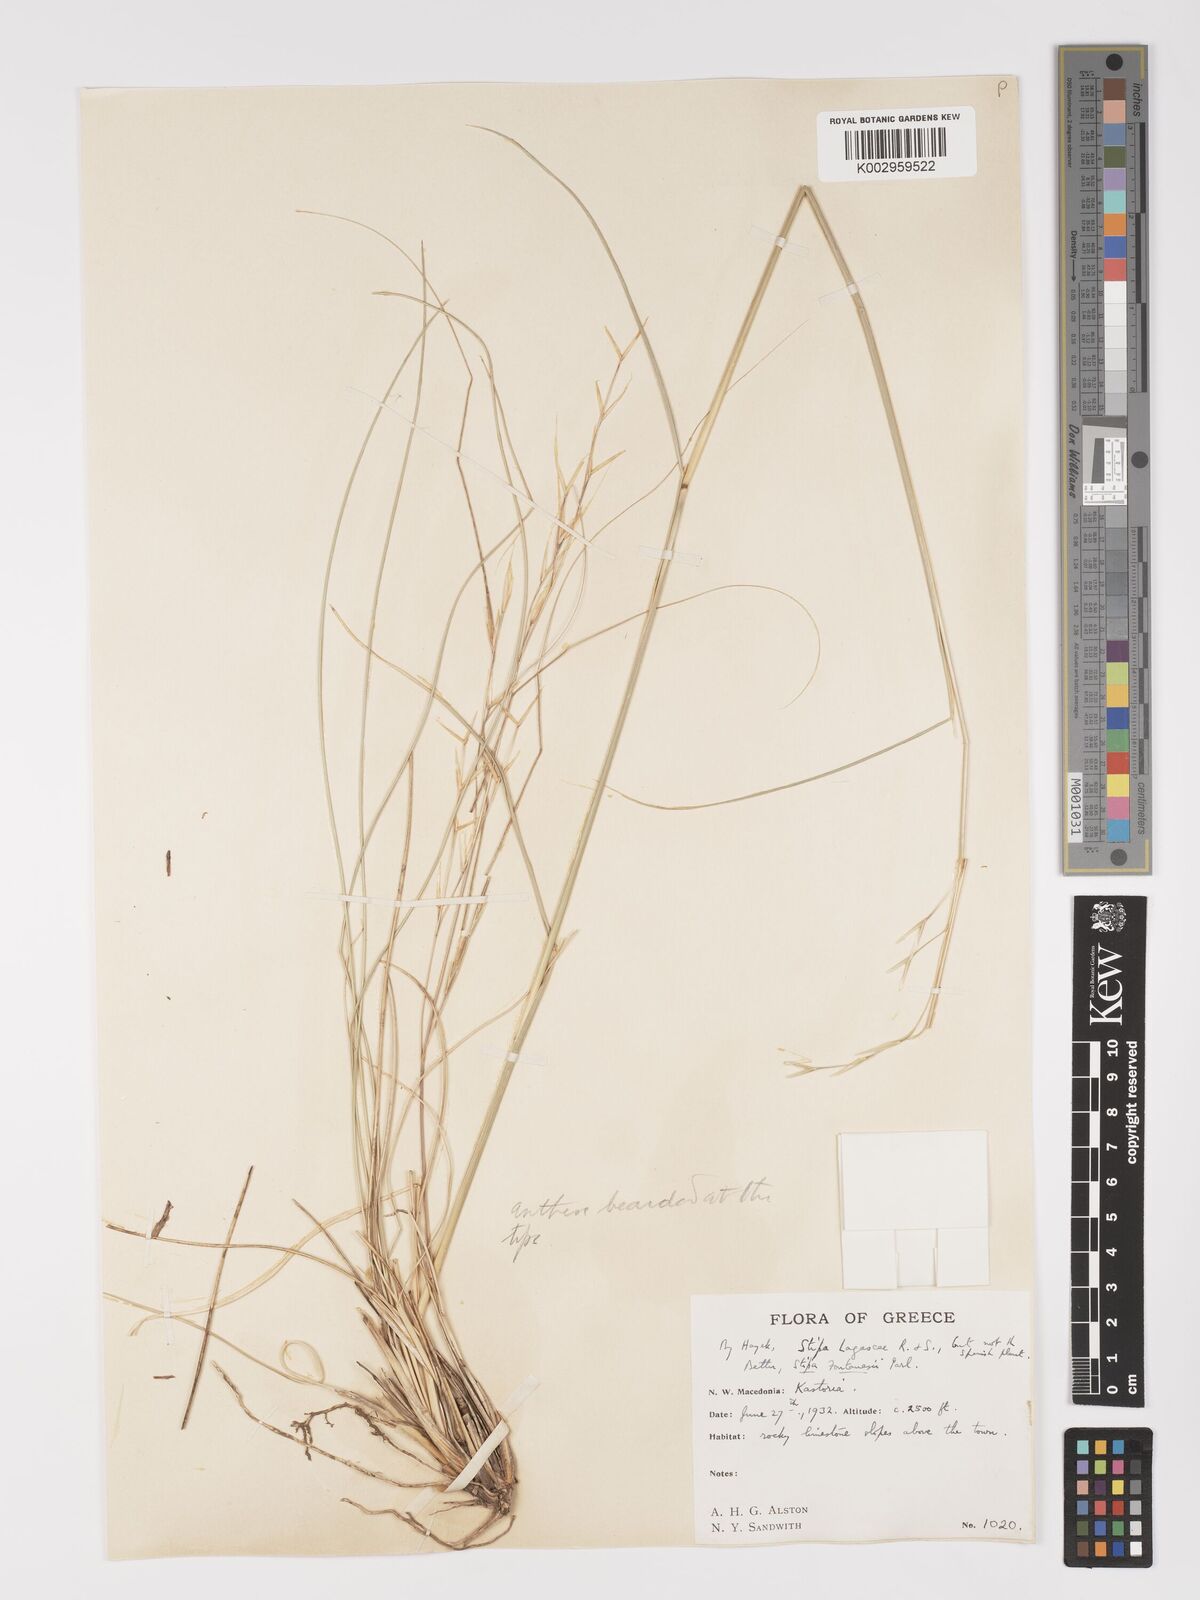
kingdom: Plantae
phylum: Tracheophyta
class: Liliopsida
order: Poales
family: Poaceae
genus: Stipa
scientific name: Stipa holosericea
